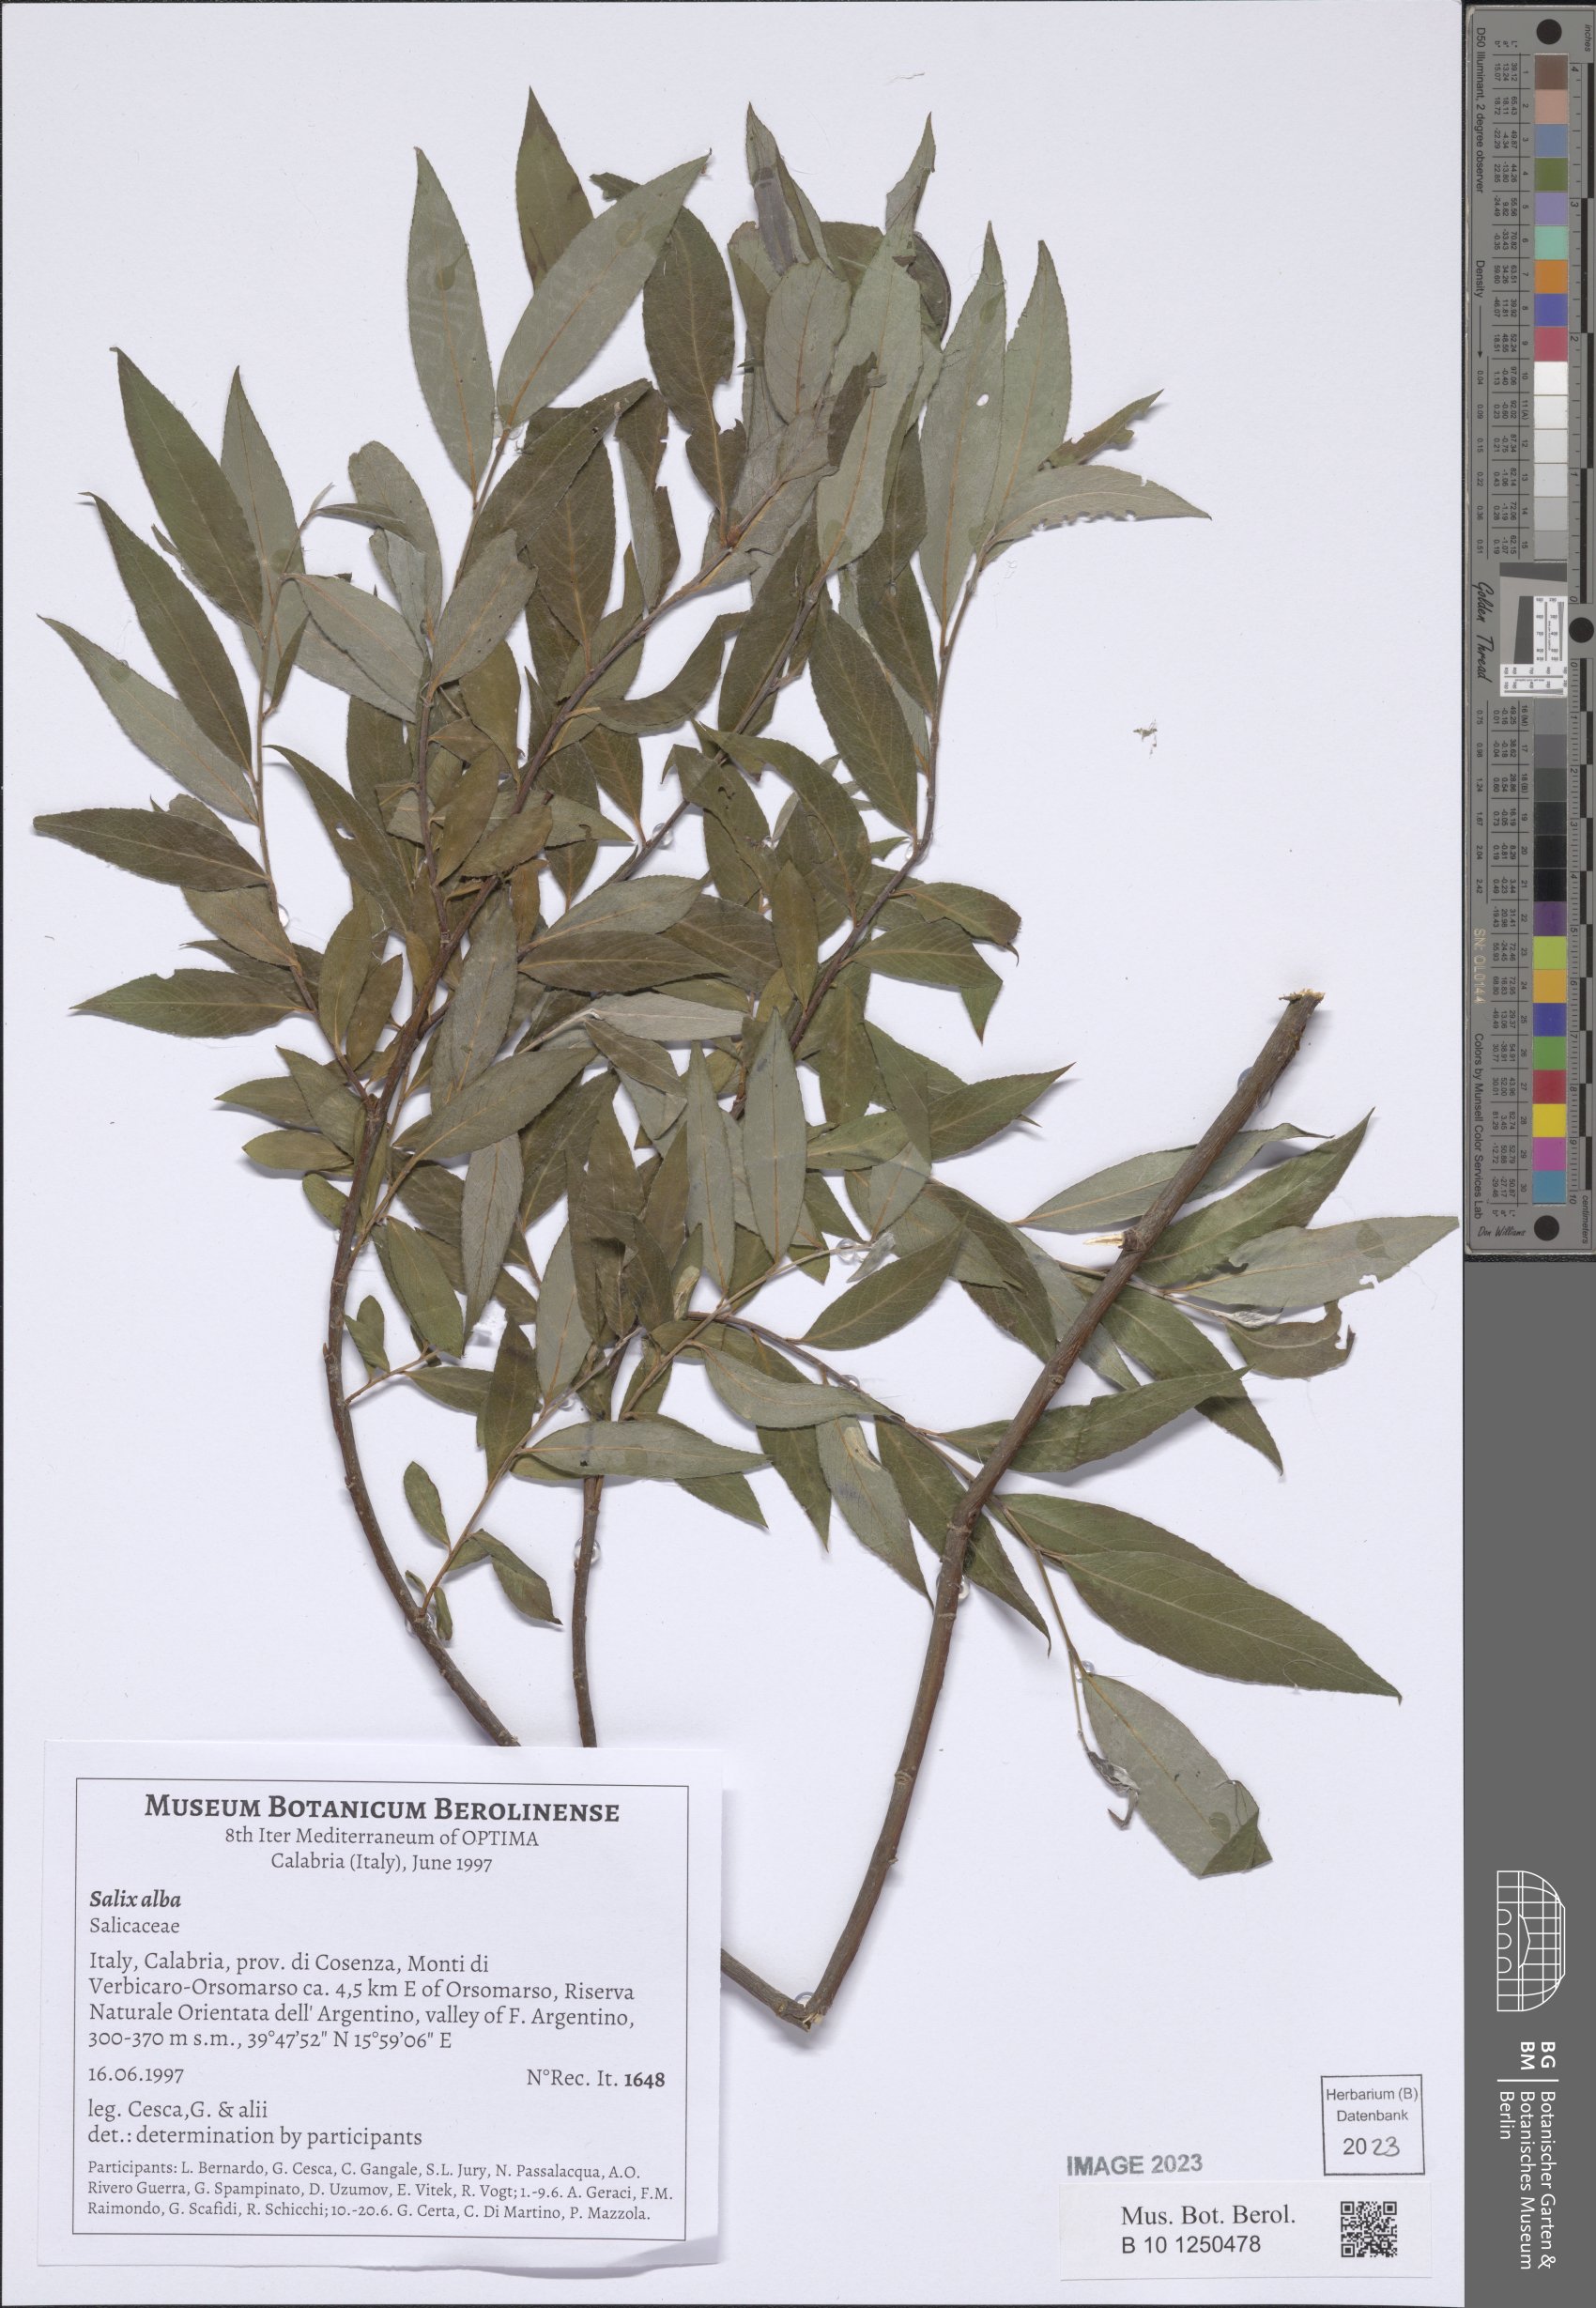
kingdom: Plantae
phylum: Tracheophyta
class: Magnoliopsida
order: Malpighiales
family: Salicaceae
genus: Salix
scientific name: Salix alba
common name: White willow
